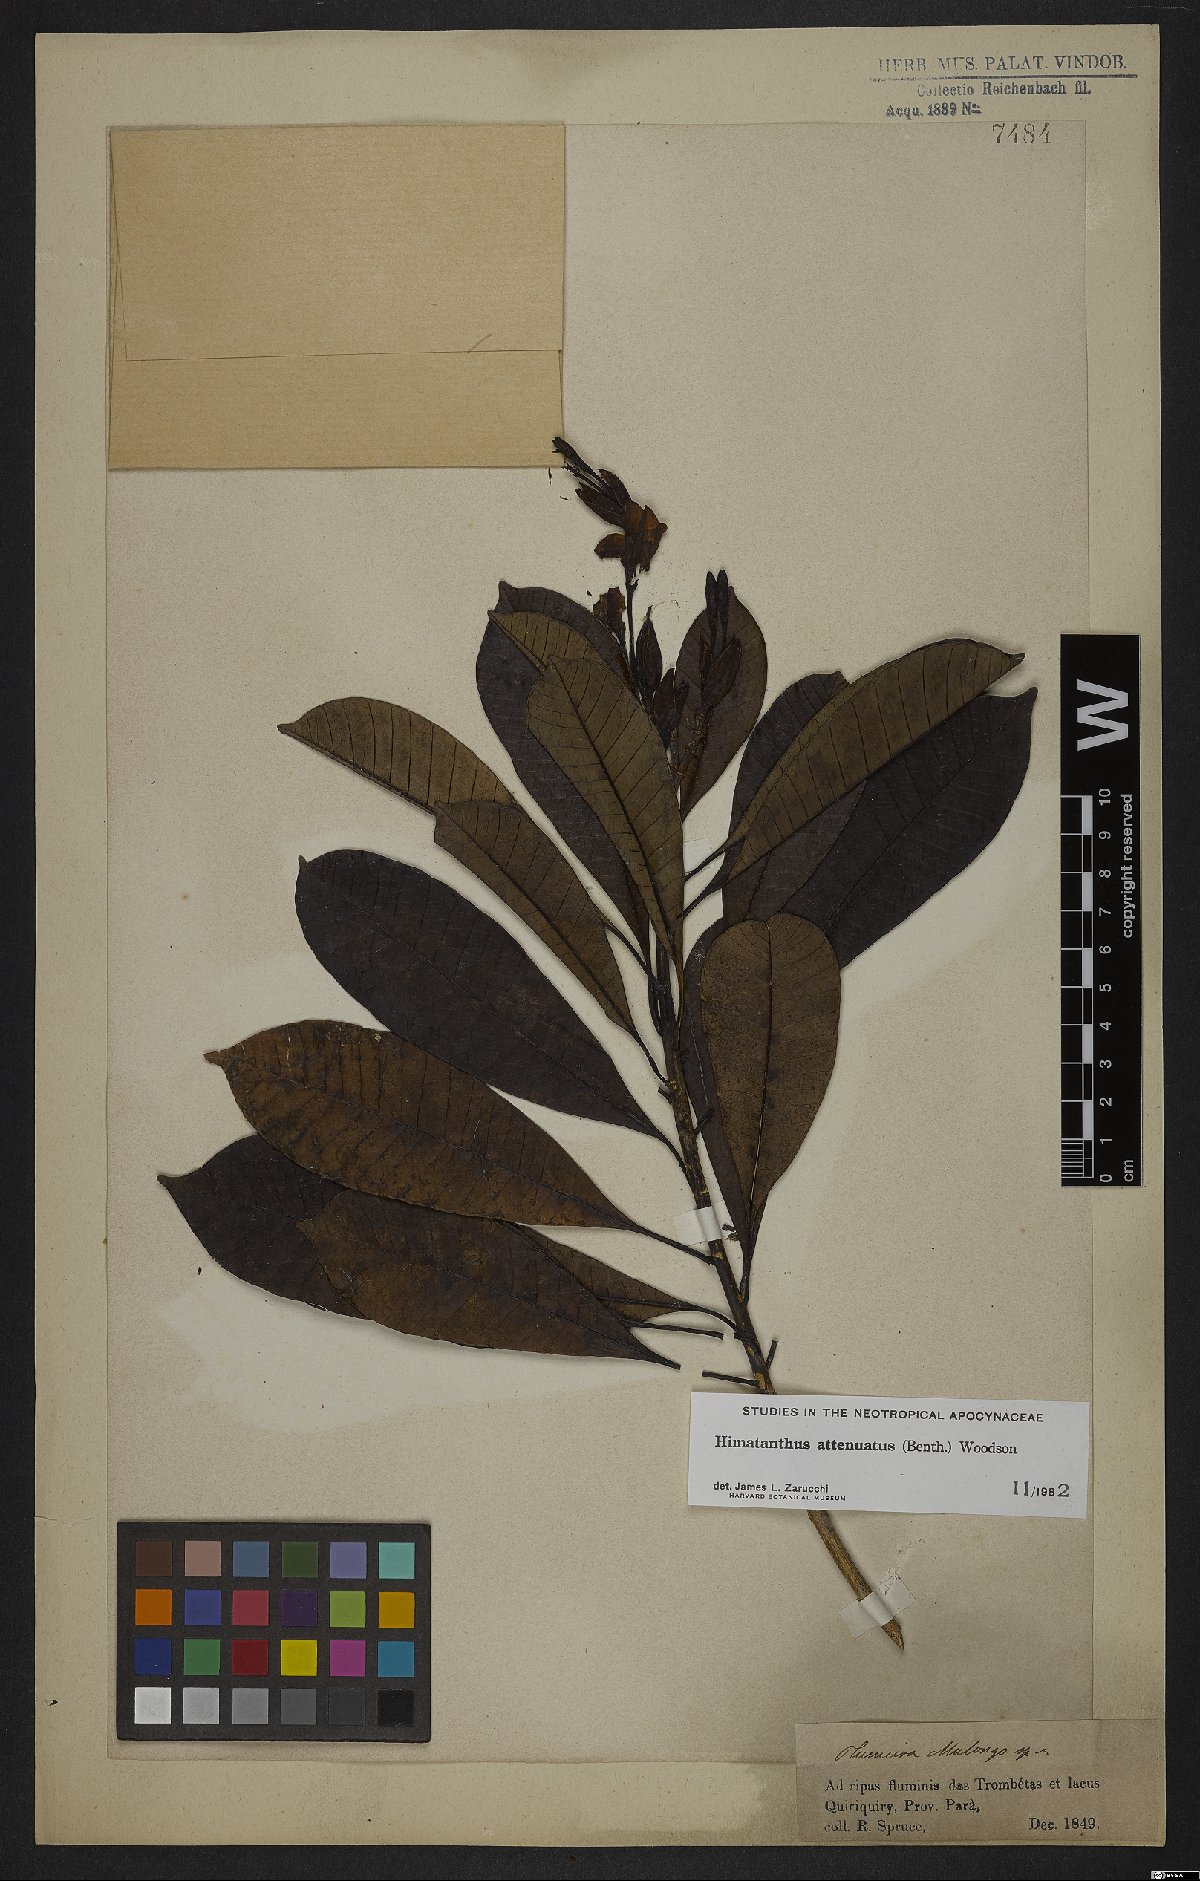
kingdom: Plantae
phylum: Tracheophyta
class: Magnoliopsida
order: Gentianales
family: Apocynaceae
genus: Himatanthus
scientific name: Himatanthus attenuatus
